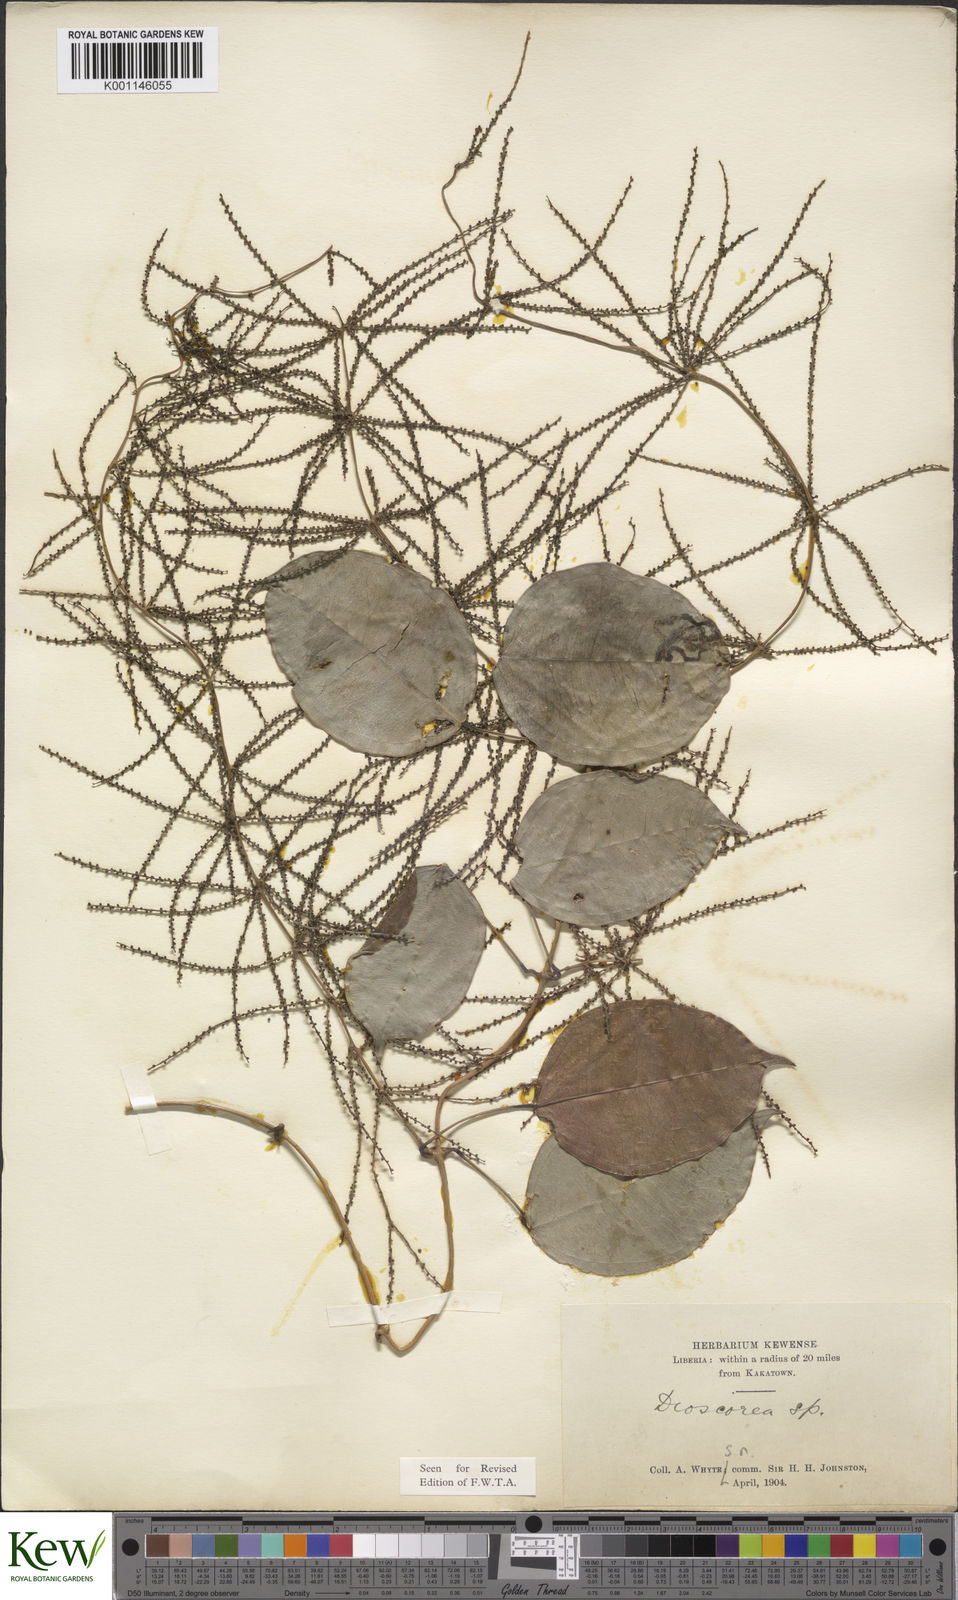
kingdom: Plantae
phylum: Tracheophyta
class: Liliopsida
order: Dioscoreales
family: Dioscoreaceae
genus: Dioscorea
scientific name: Dioscorea smilacifolia
